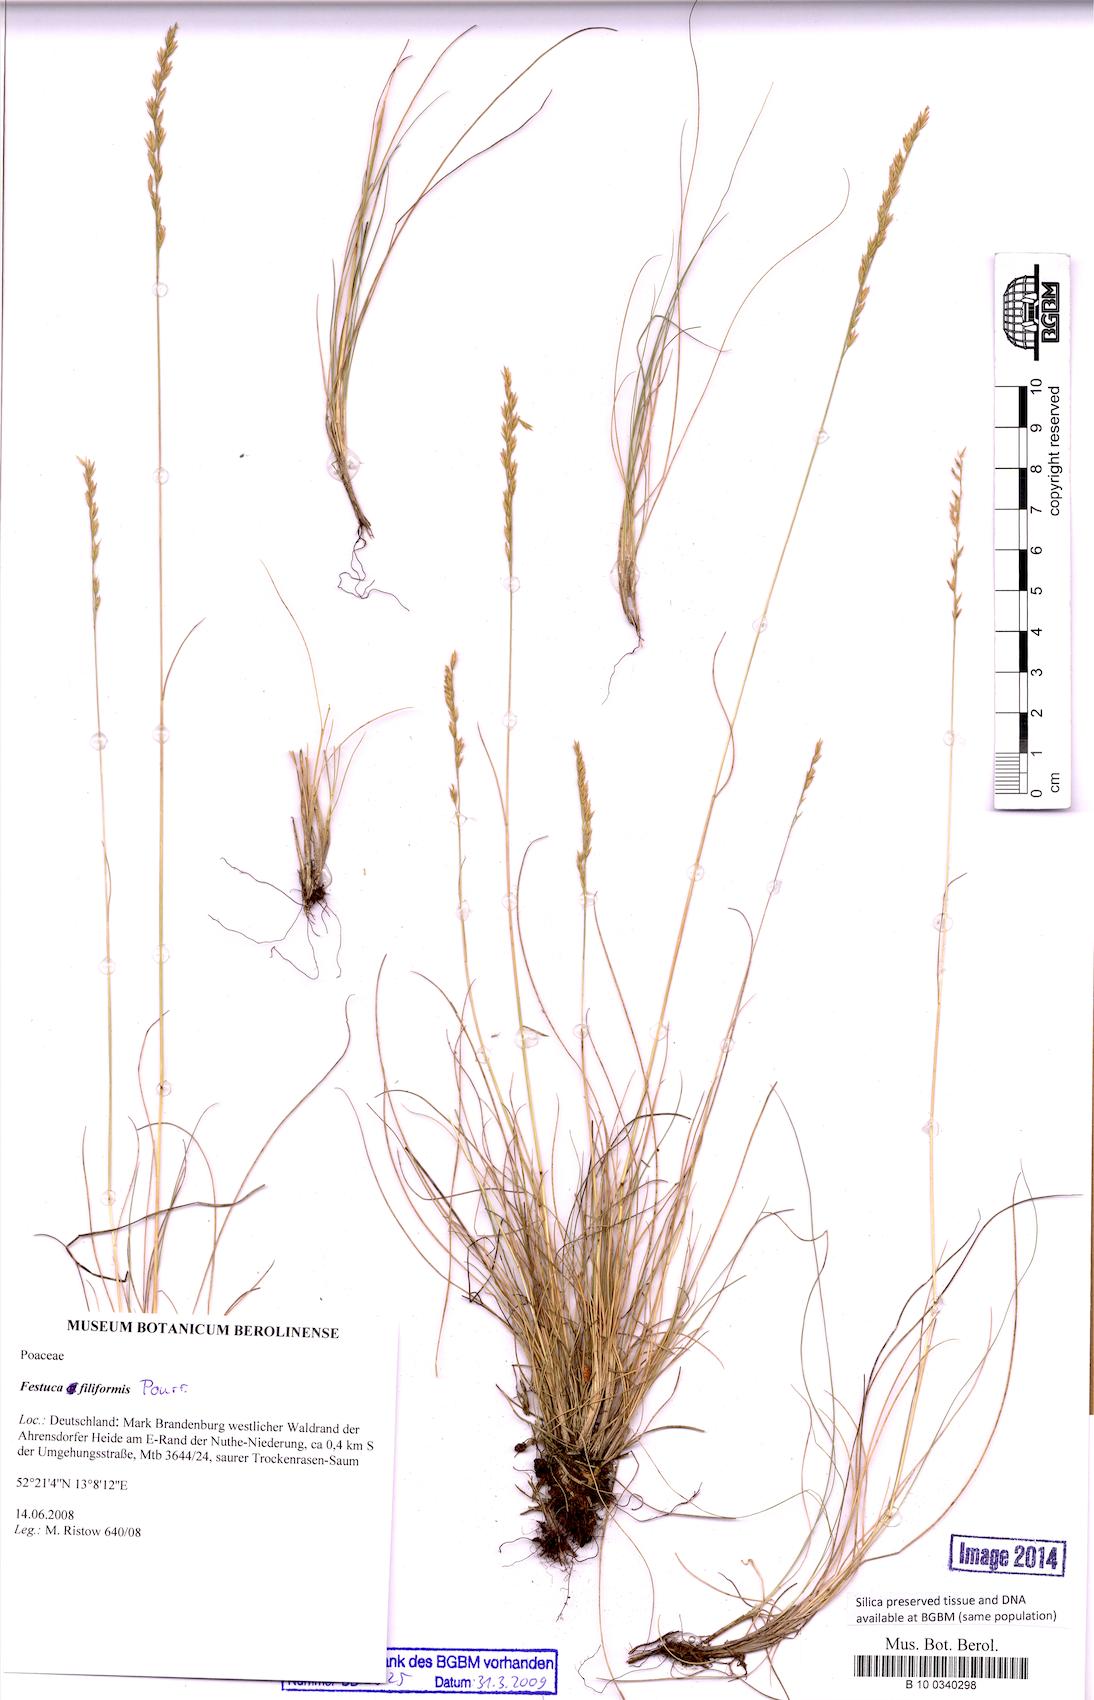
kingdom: Plantae
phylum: Tracheophyta
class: Liliopsida
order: Poales
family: Poaceae
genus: Leptochloa
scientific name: Leptochloa panicea
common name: Mucronate sprangletop
